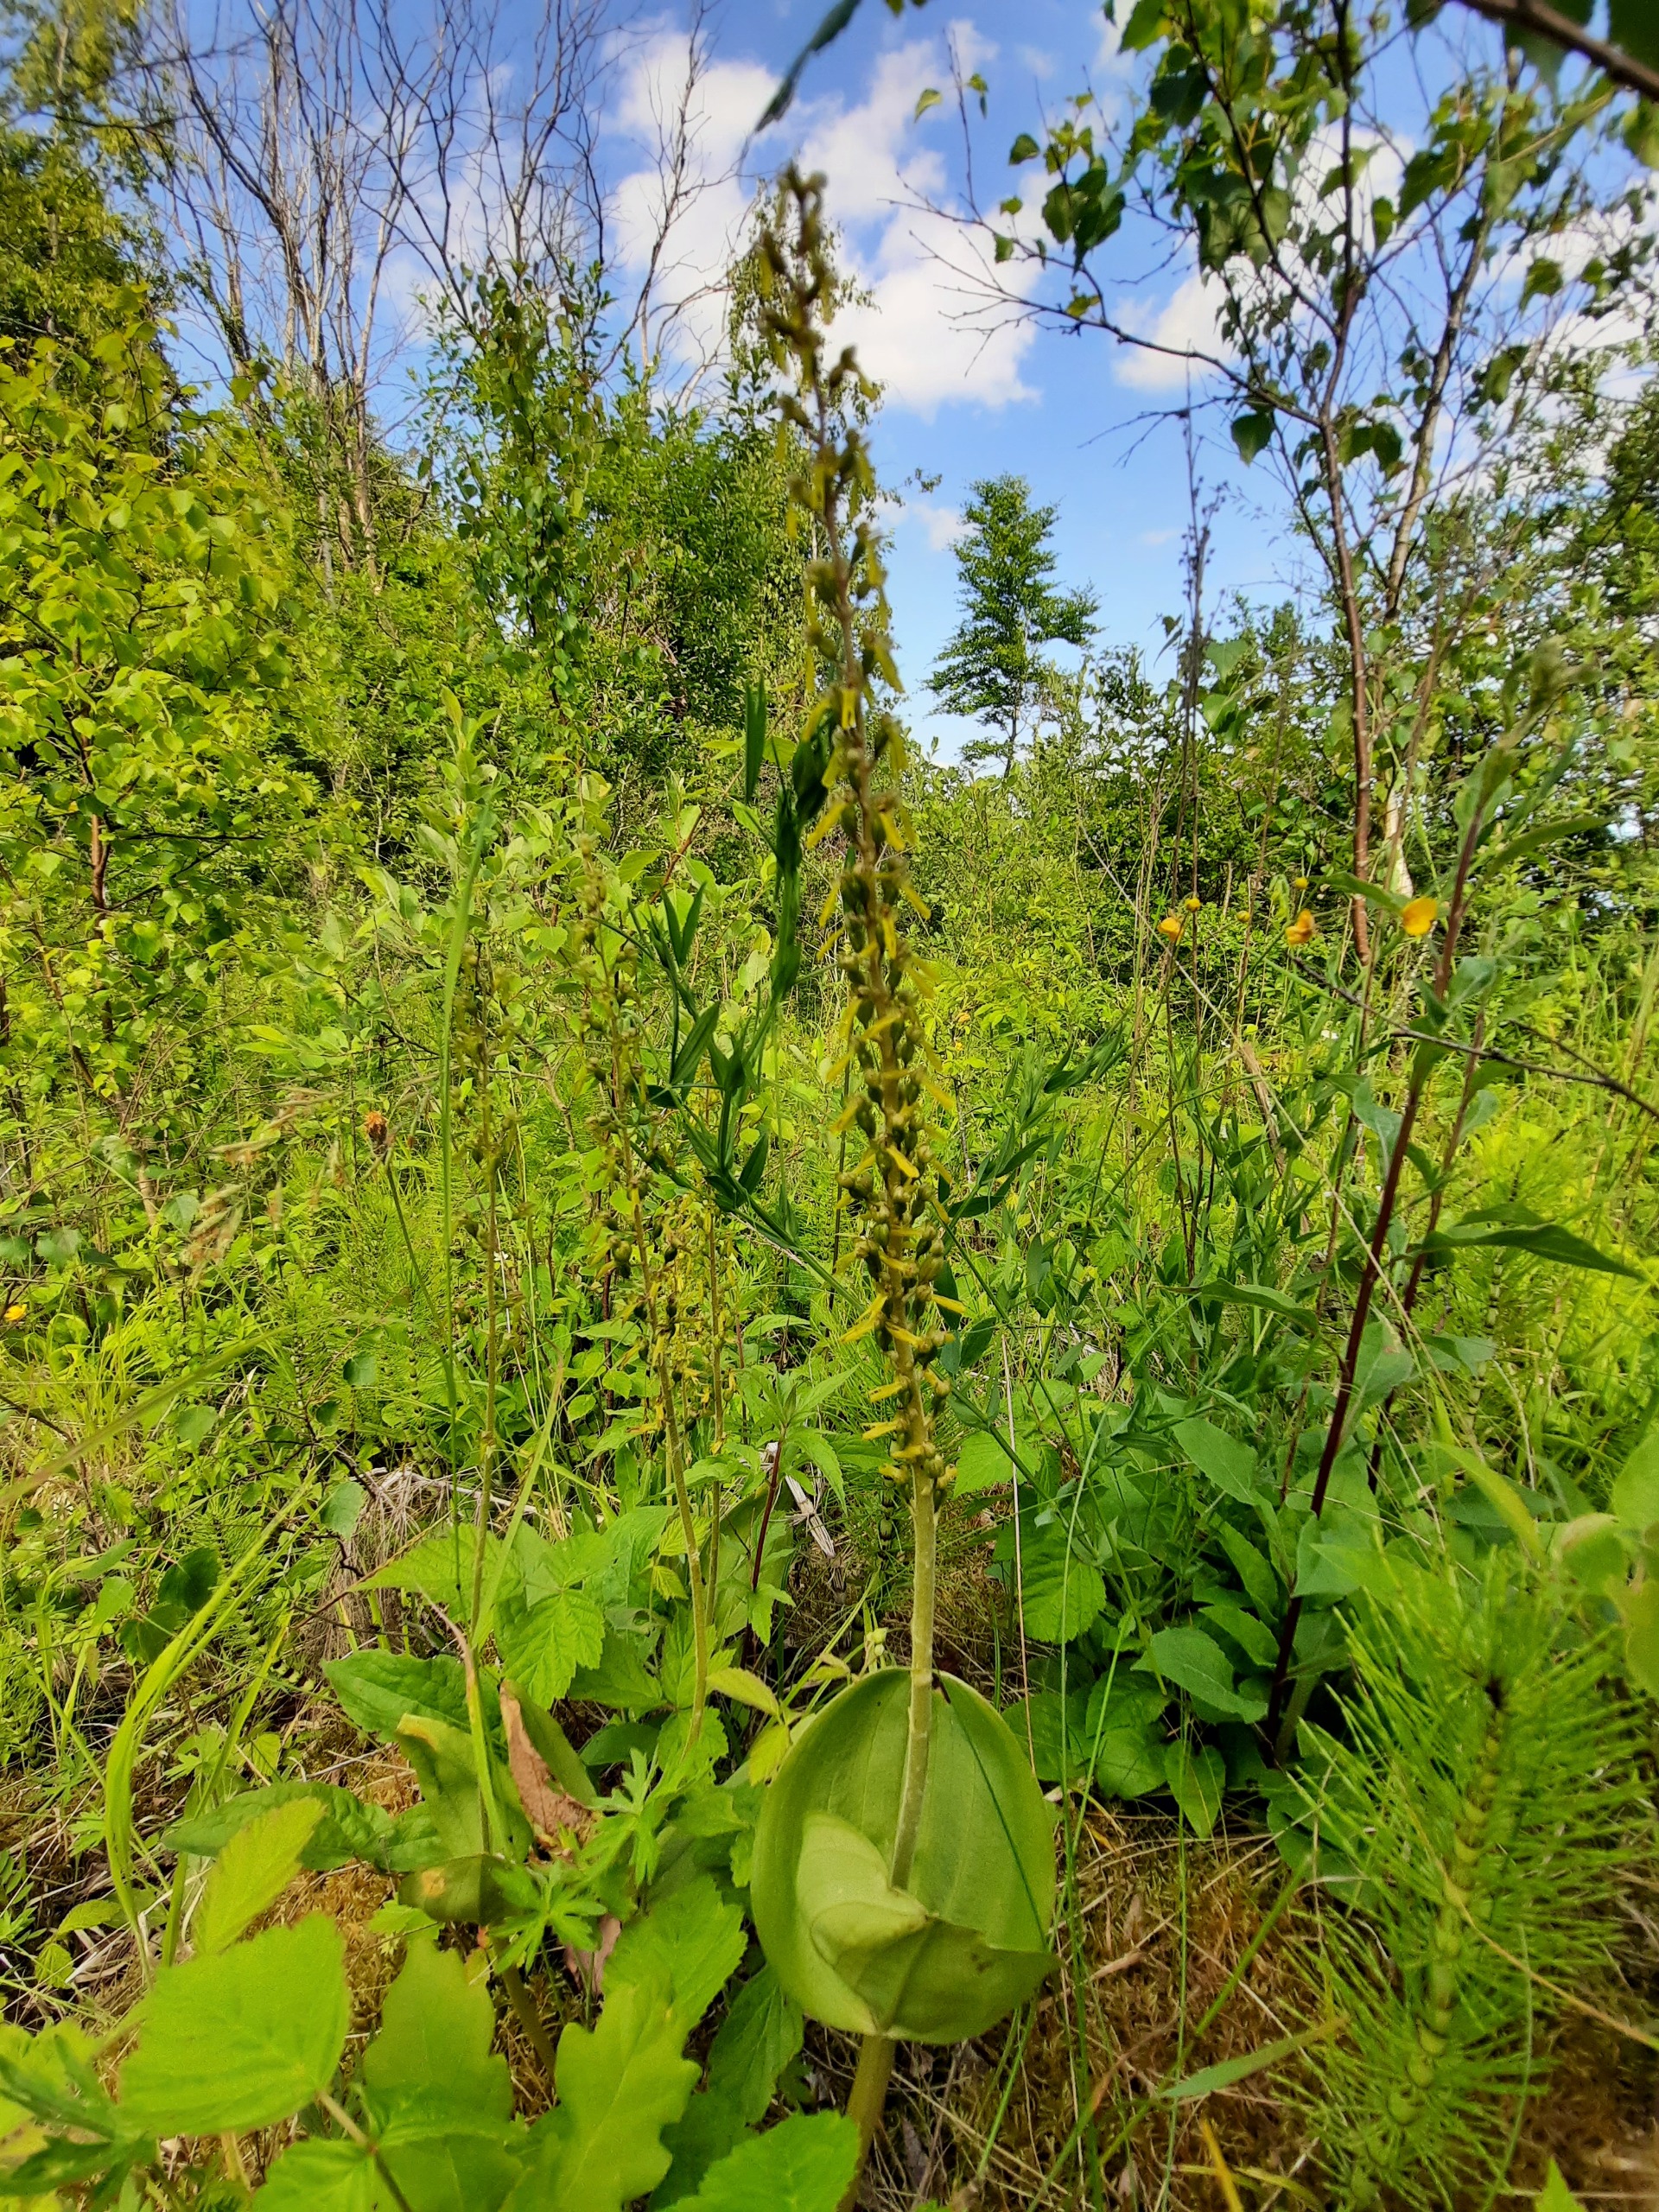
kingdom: Plantae
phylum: Tracheophyta
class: Liliopsida
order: Asparagales
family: Orchidaceae
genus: Neottia
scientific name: Neottia ovata
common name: Ægbladet fliglæbe
